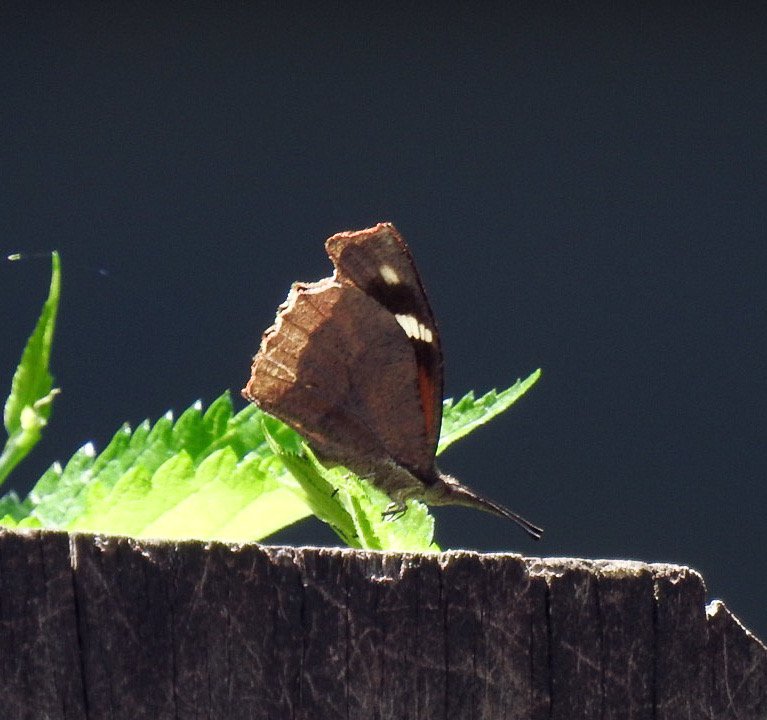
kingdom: Animalia
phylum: Arthropoda
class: Insecta
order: Lepidoptera
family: Nymphalidae
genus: Libytheana
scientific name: Libytheana carinenta
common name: American Snout
